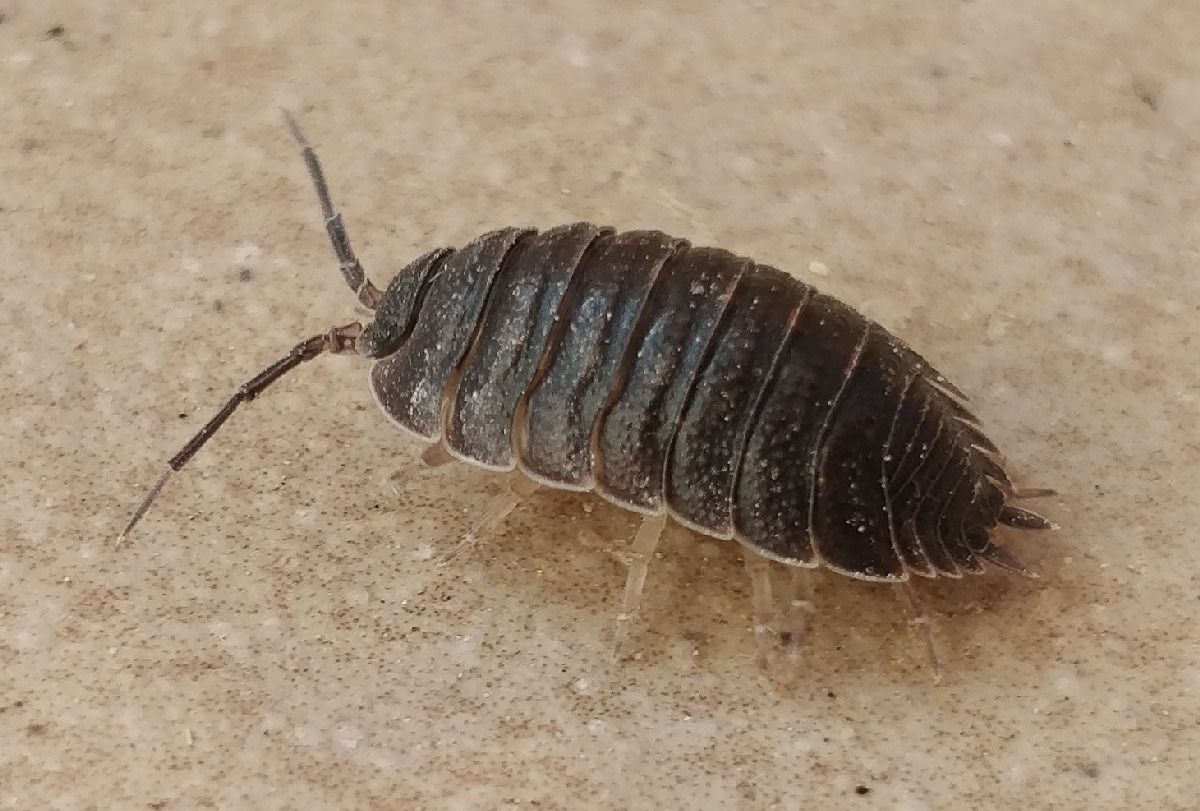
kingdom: Animalia
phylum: Arthropoda
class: Malacostraca
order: Isopoda
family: Porcellionidae
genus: Porcellio
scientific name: Porcellio scaber
